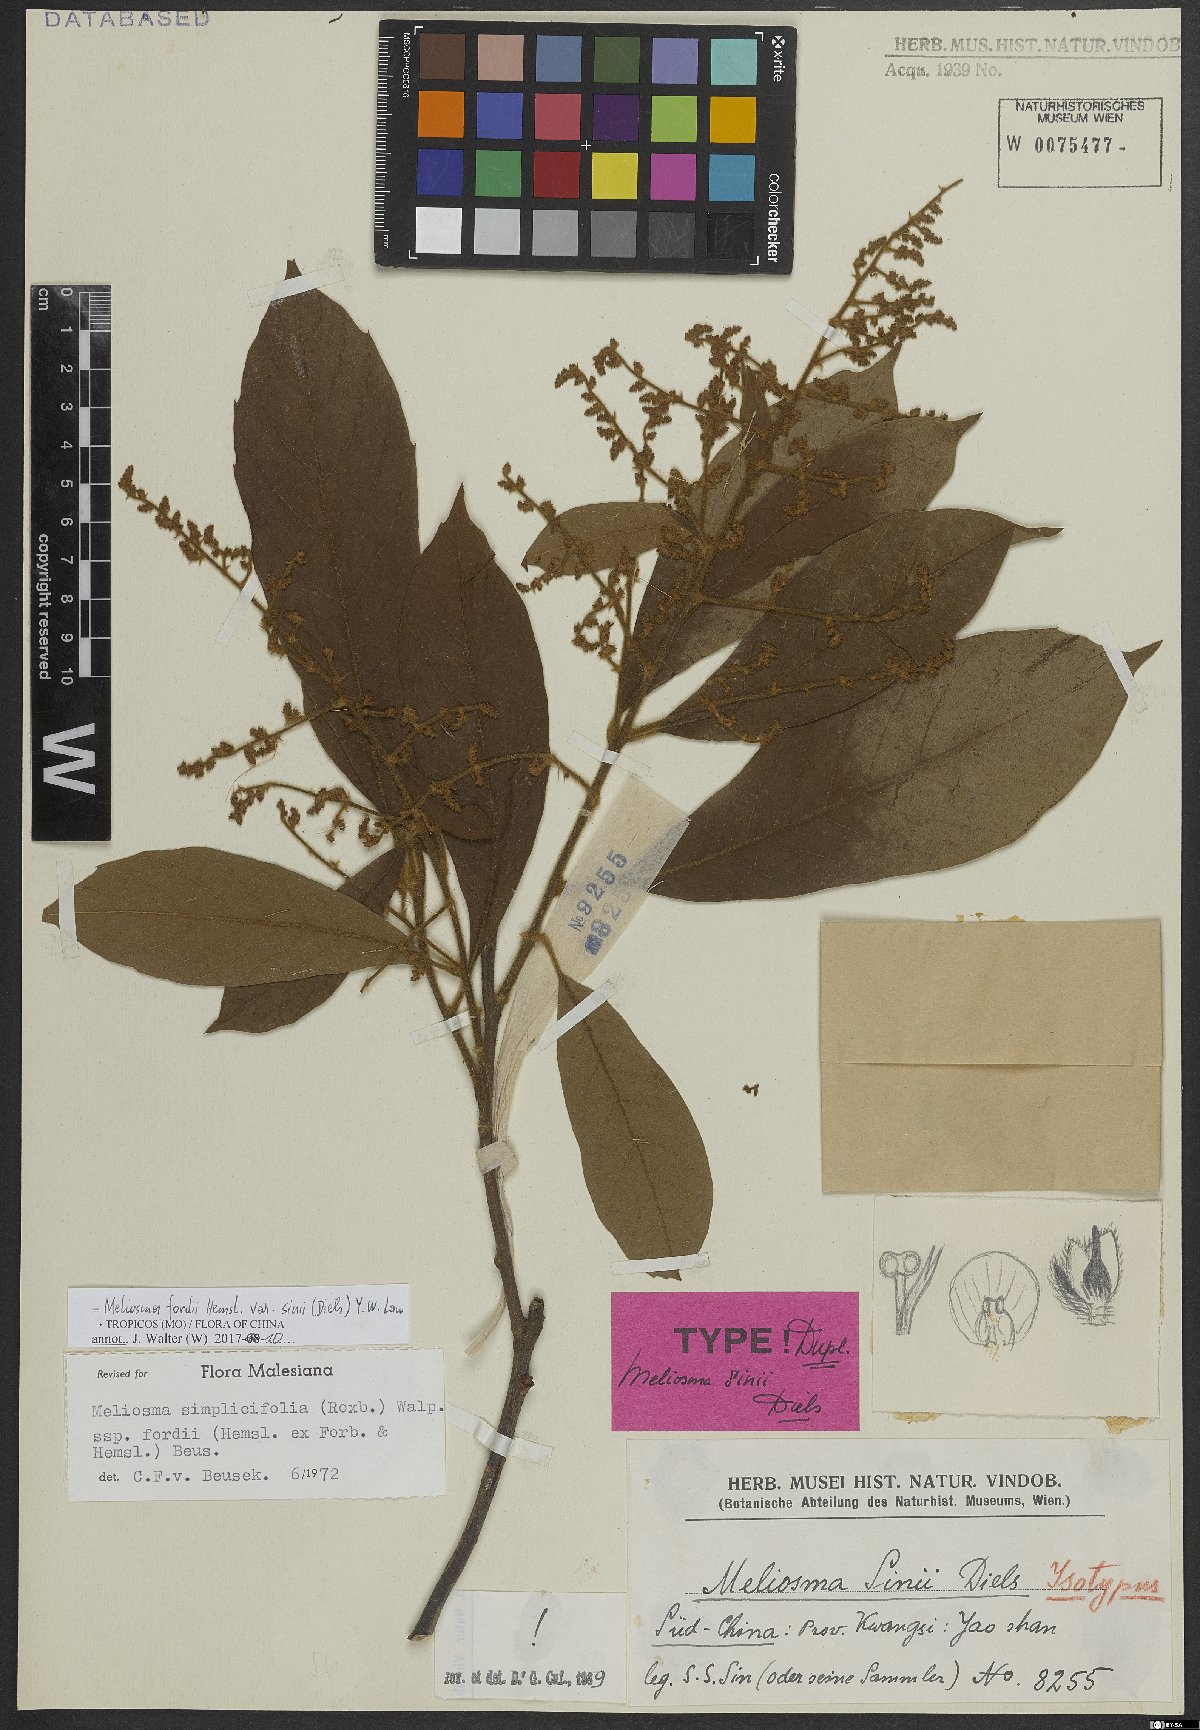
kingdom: Plantae
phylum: Tracheophyta
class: Magnoliopsida
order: Proteales
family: Sabiaceae
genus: Meliosma
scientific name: Meliosma fordii
